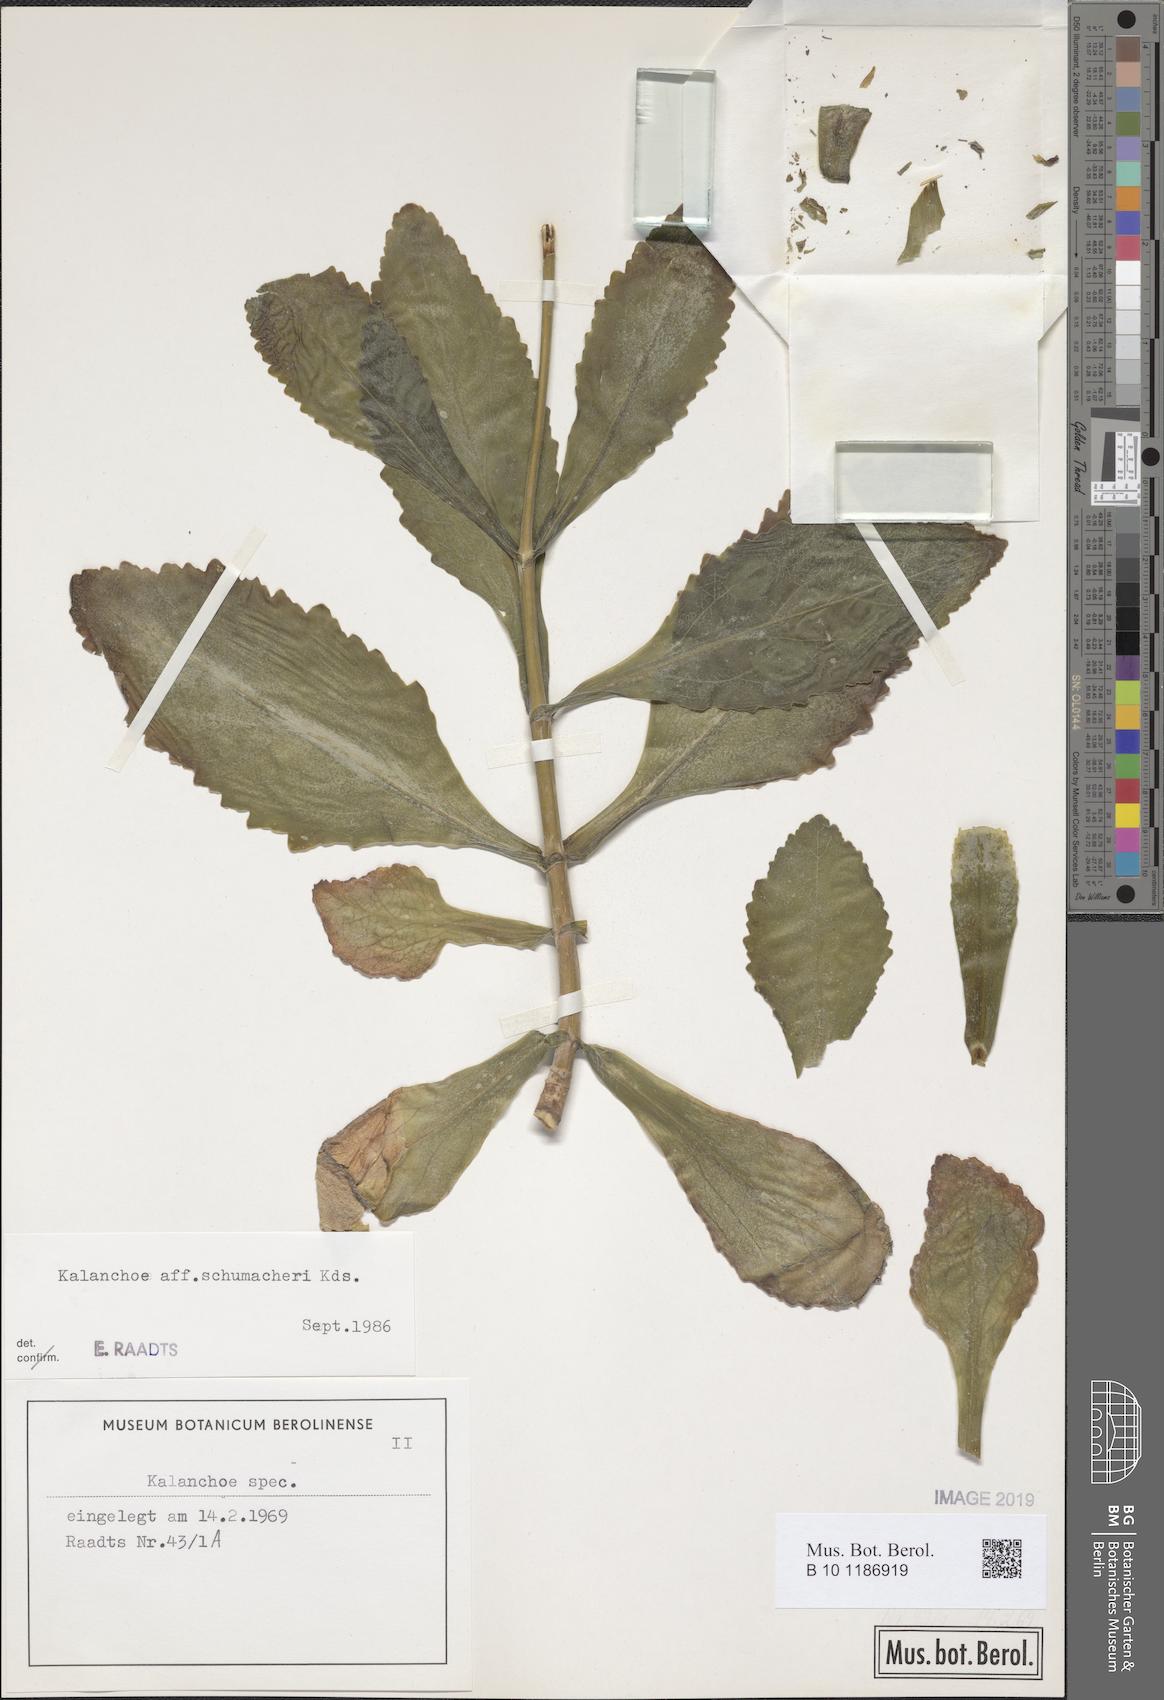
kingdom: Plantae
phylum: Tracheophyta
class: Magnoliopsida
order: Saxifragales
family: Crassulaceae
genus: Kalanchoe
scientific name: Kalanchoe integra
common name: Neverdie
